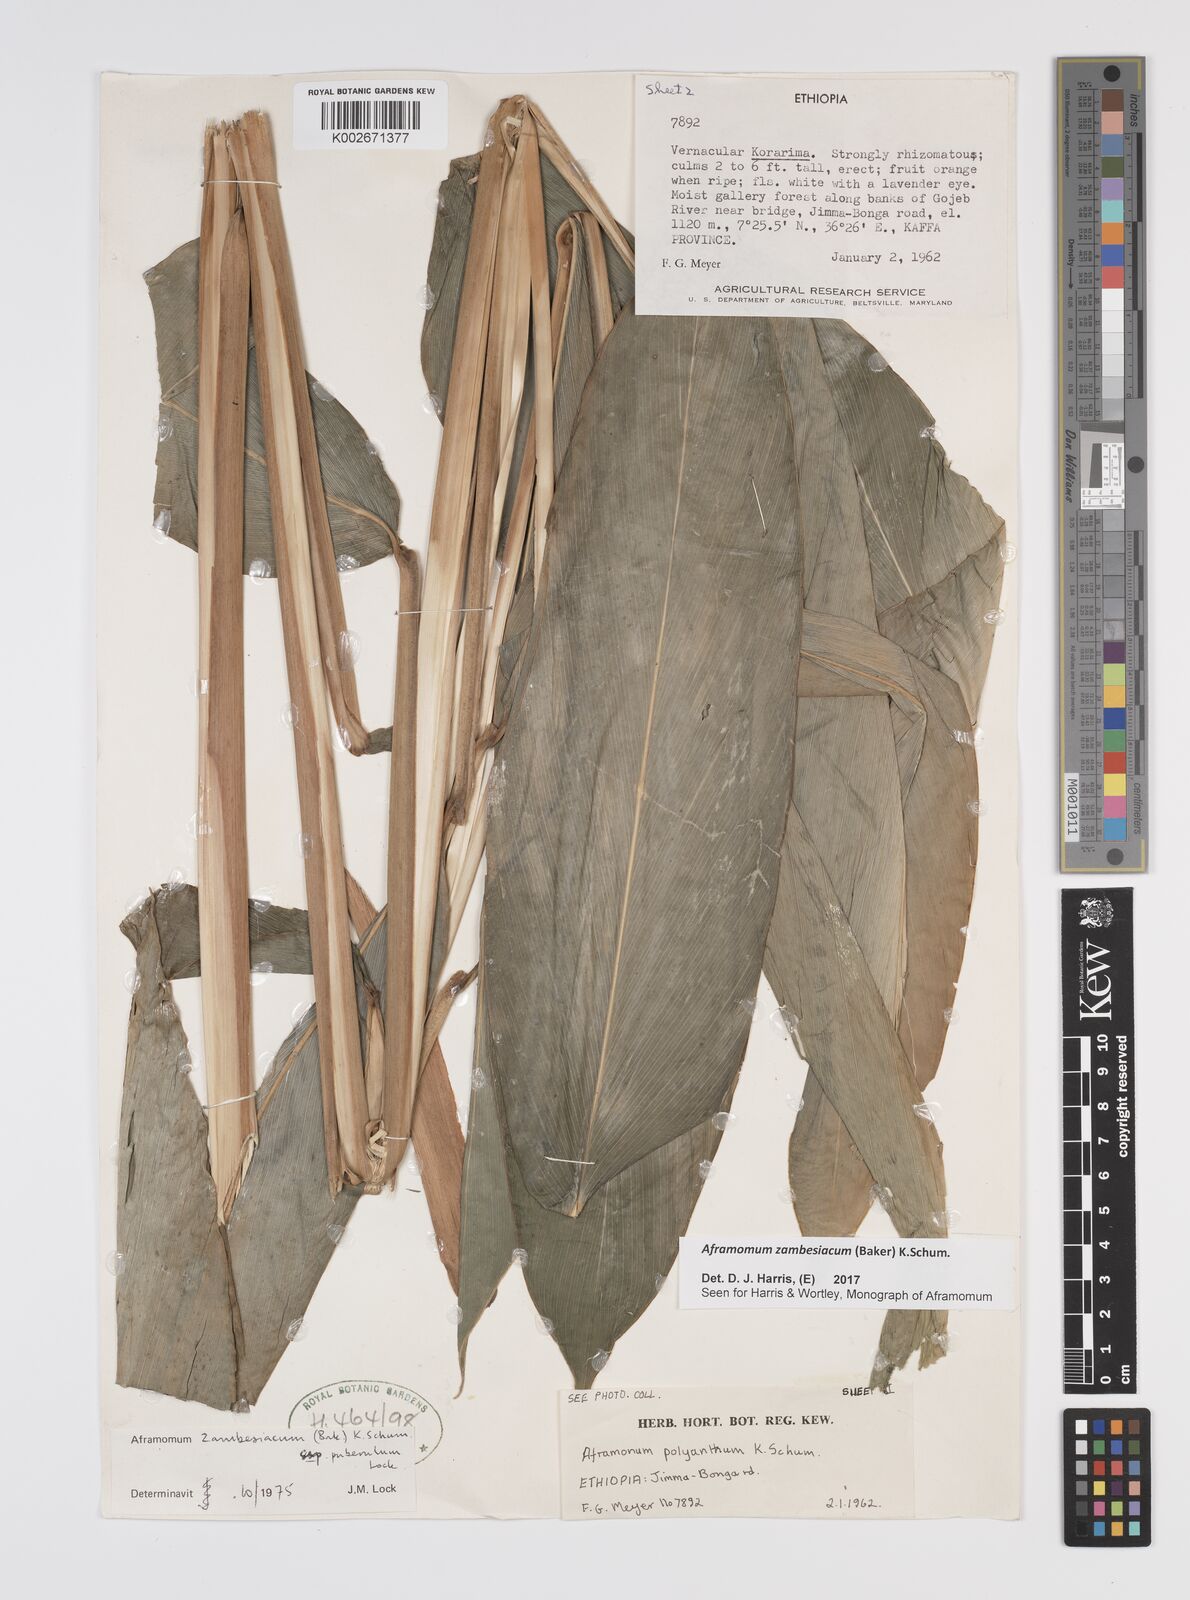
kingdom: Plantae
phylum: Tracheophyta
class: Liliopsida
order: Zingiberales
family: Zingiberaceae
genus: Aframomum
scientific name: Aframomum zambesiacum
